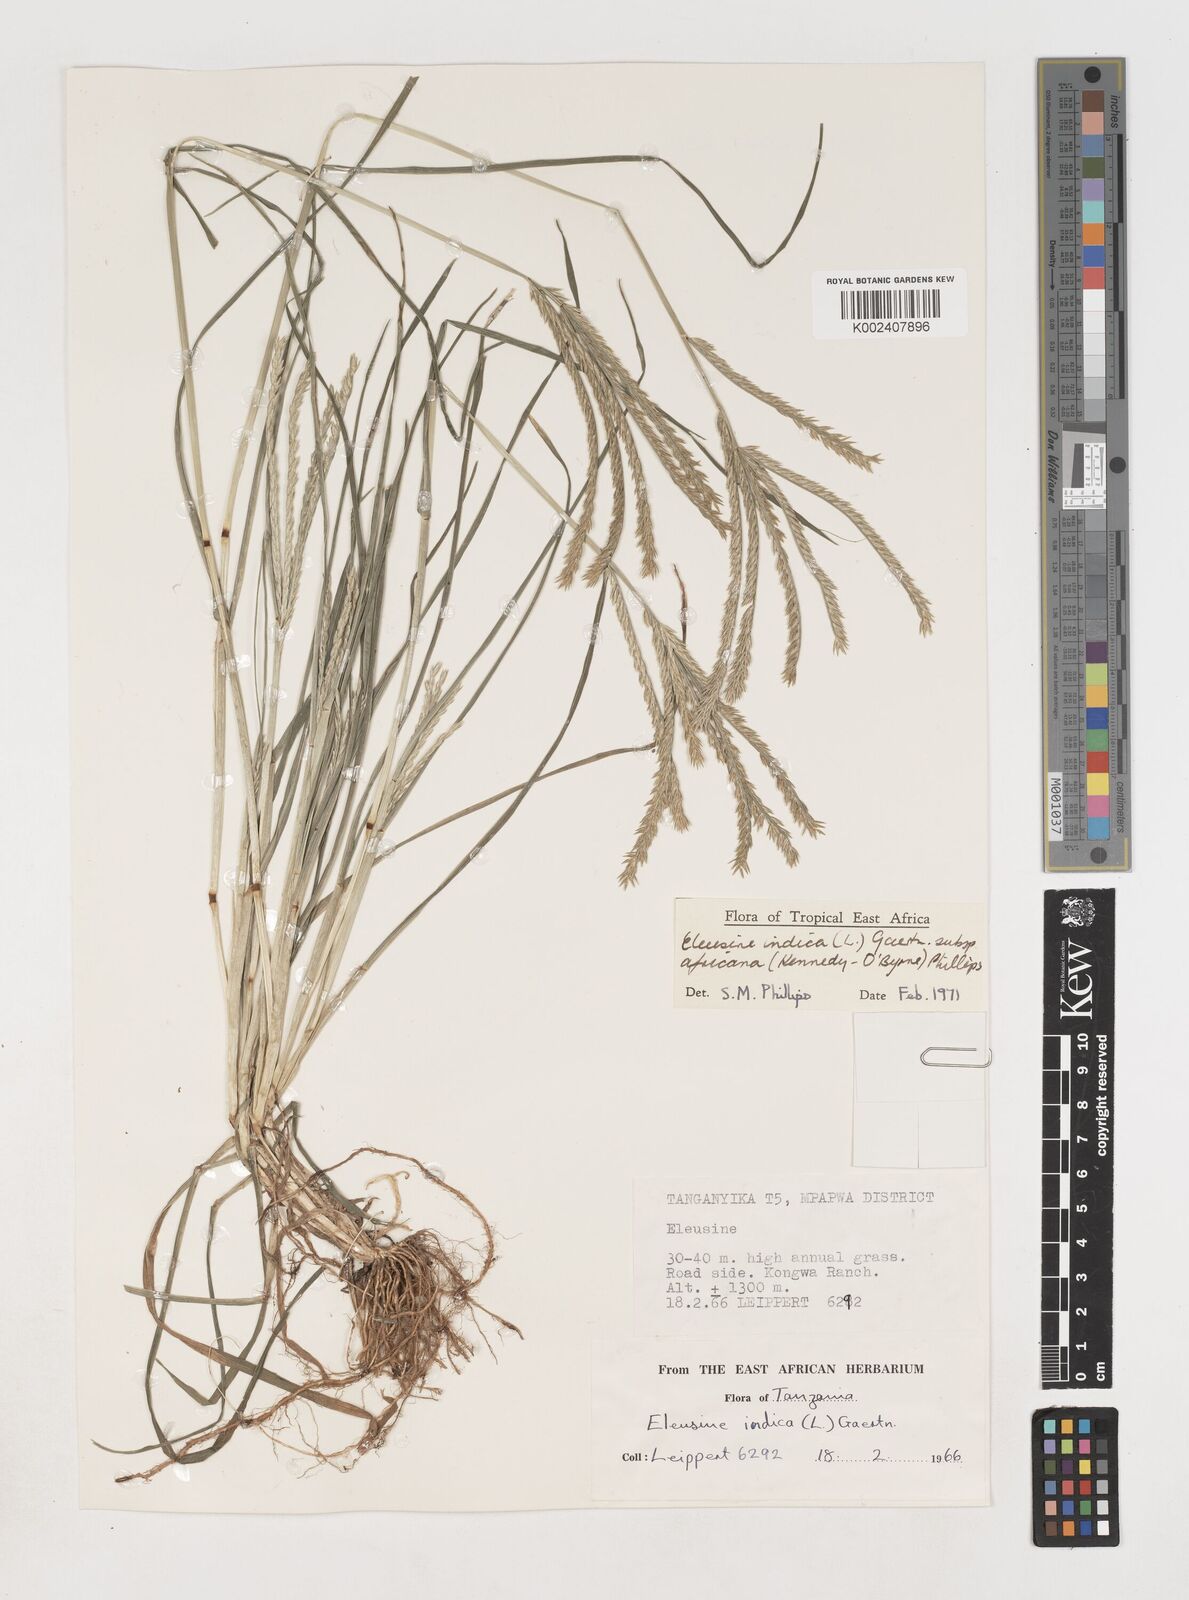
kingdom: Plantae
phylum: Tracheophyta
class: Liliopsida
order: Poales
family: Poaceae
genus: Eleusine
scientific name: Eleusine africana
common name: Wild african finger millet
